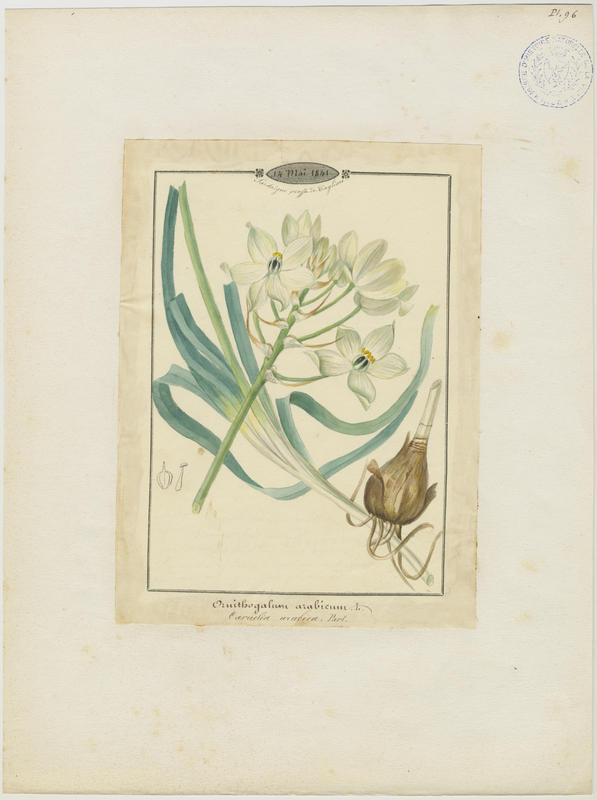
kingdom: Plantae
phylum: Tracheophyta
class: Liliopsida
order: Asparagales
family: Asparagaceae
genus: Ornithogalum
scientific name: Ornithogalum arabicum
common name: Arabian starflower
